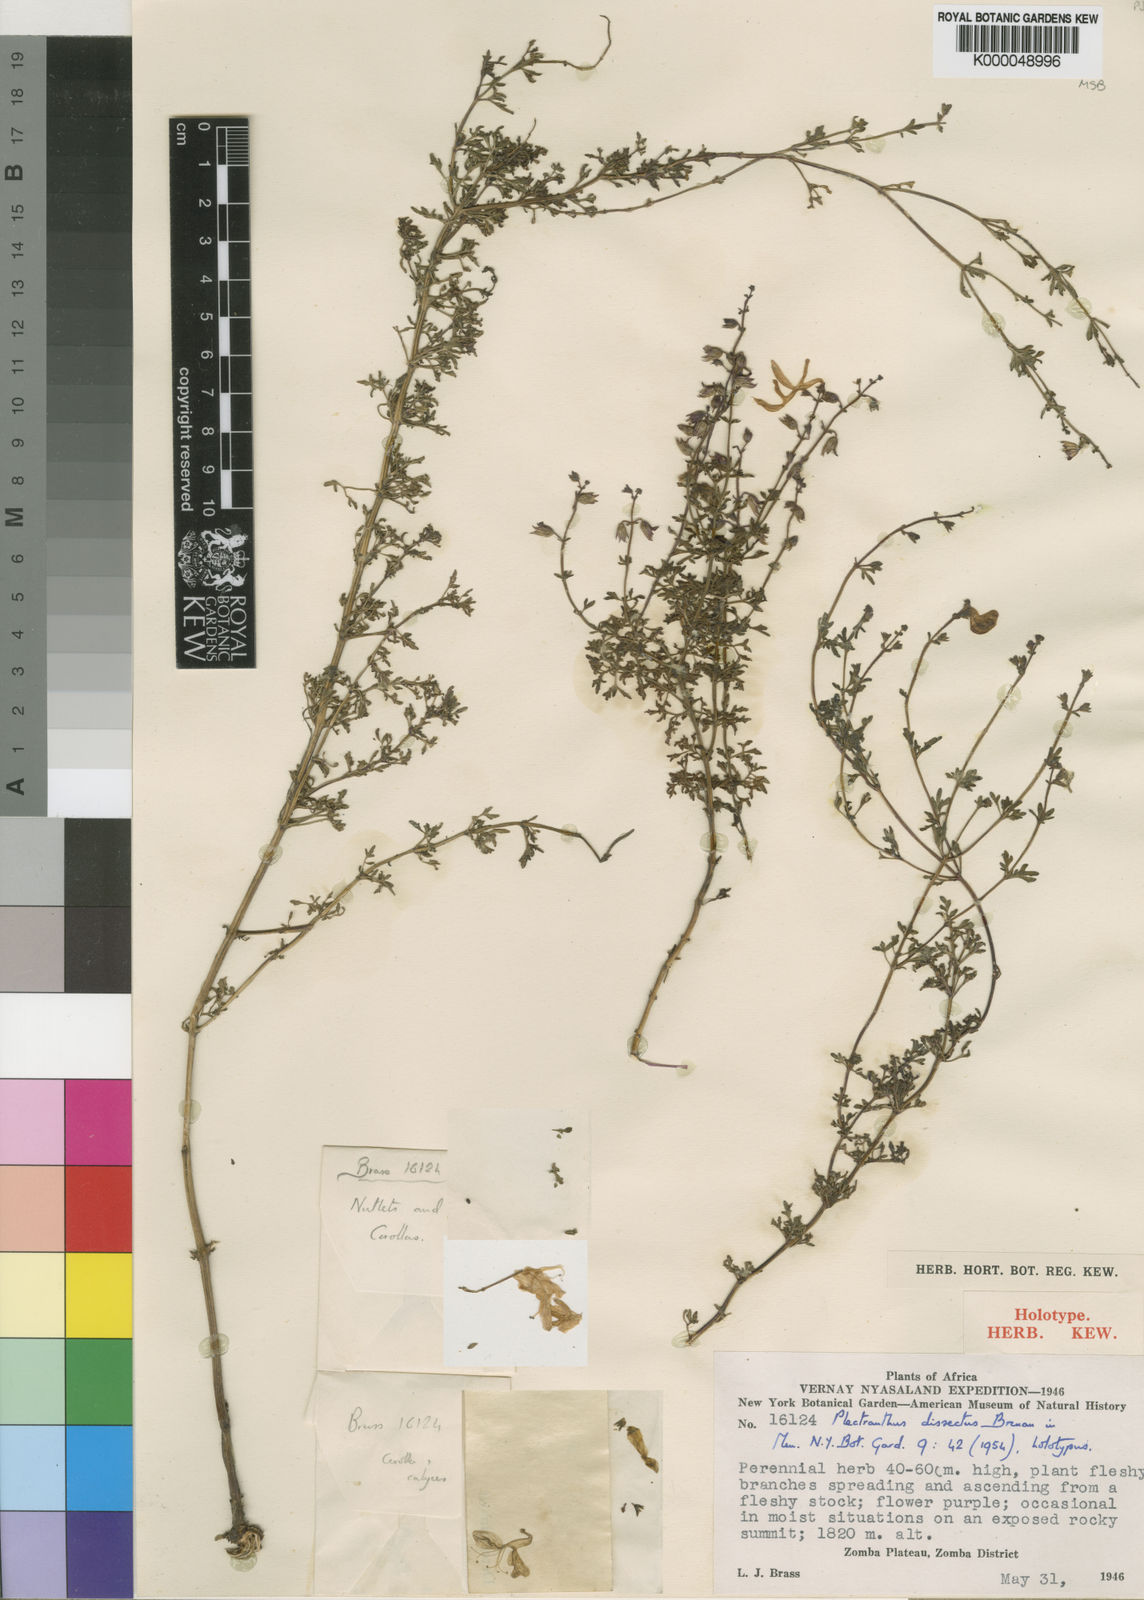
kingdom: Plantae
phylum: Tracheophyta
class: Magnoliopsida
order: Lamiales
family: Lamiaceae
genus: Equilabium
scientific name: Equilabium dissectum
